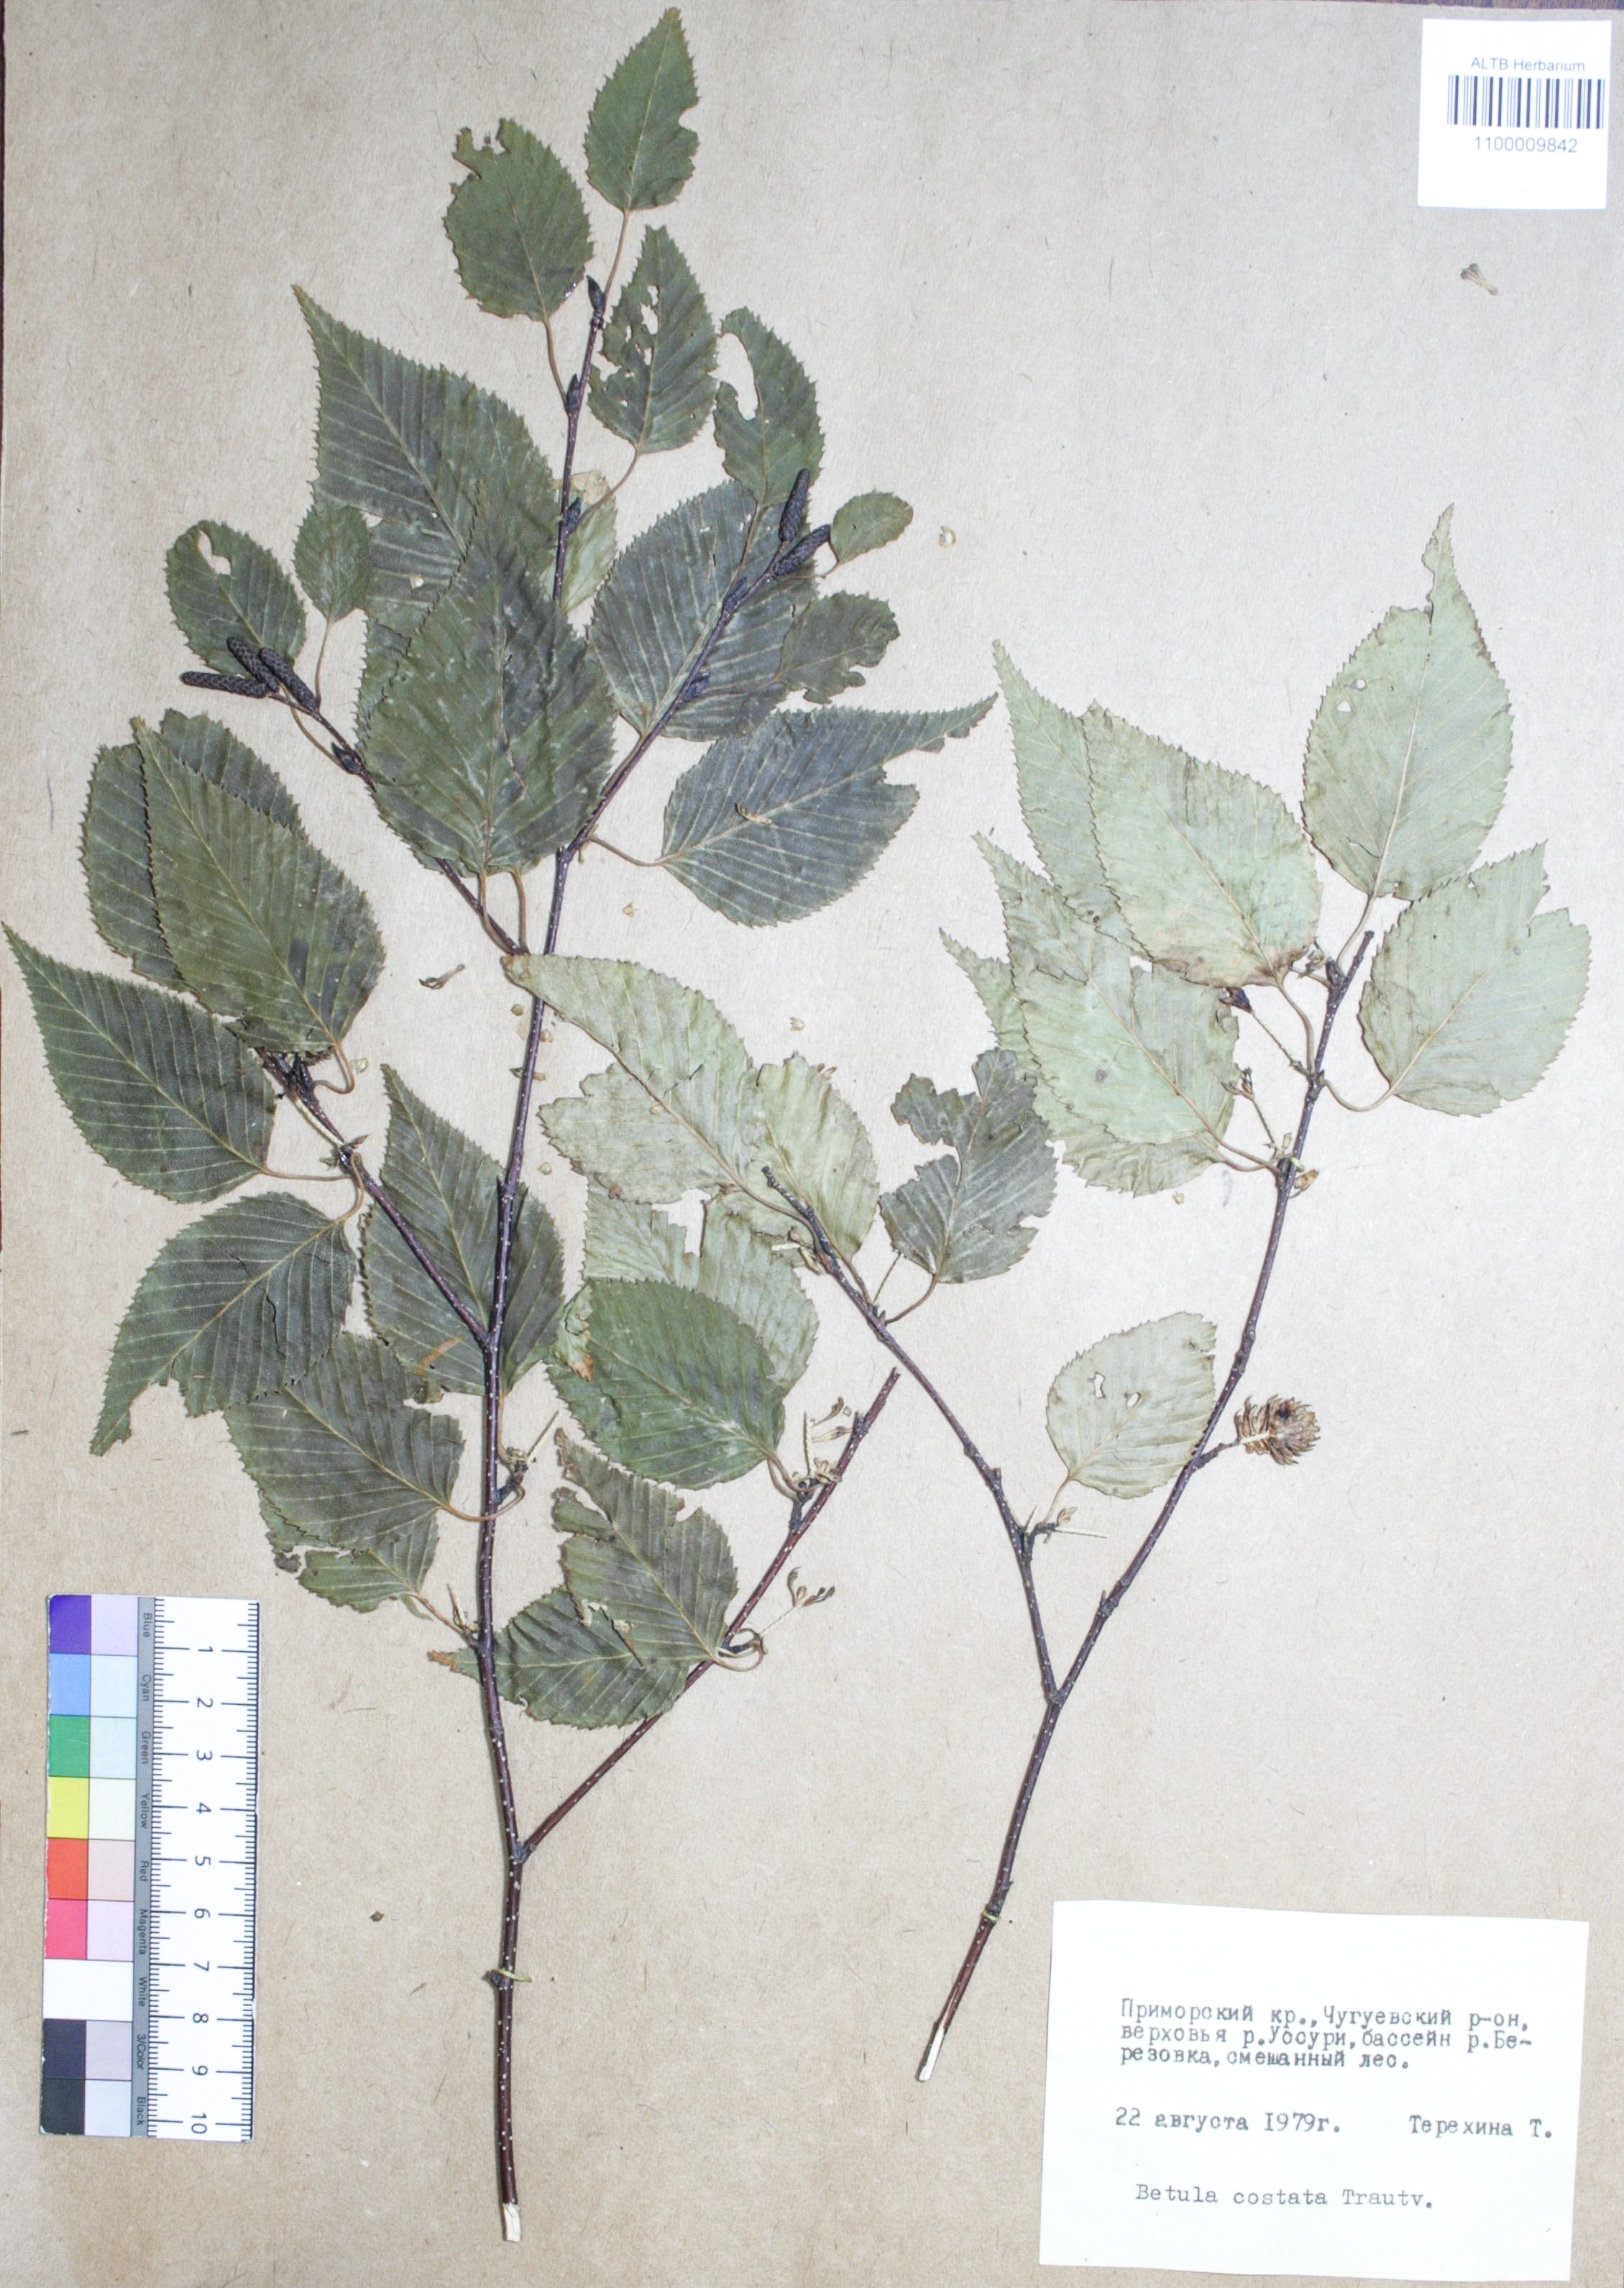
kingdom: Plantae
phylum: Tracheophyta
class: Magnoliopsida
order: Fagales
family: Betulaceae
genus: Betula
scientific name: Betula costata
